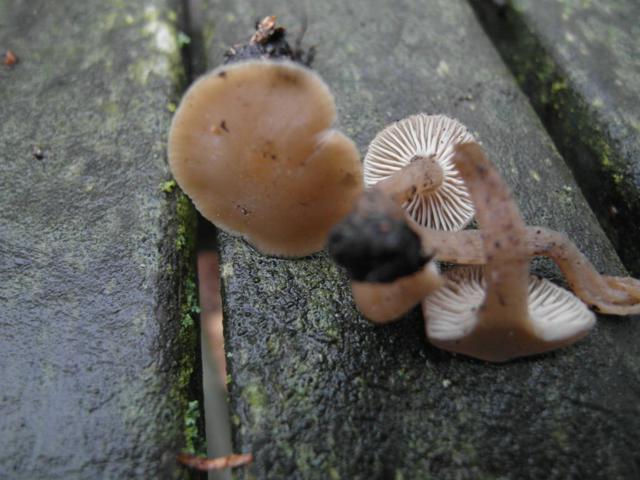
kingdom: Fungi
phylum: Basidiomycota
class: Agaricomycetes
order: Agaricales
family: Lyophyllaceae
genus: Tephrocybe
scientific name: Tephrocybe confusa
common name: trist gråblad
